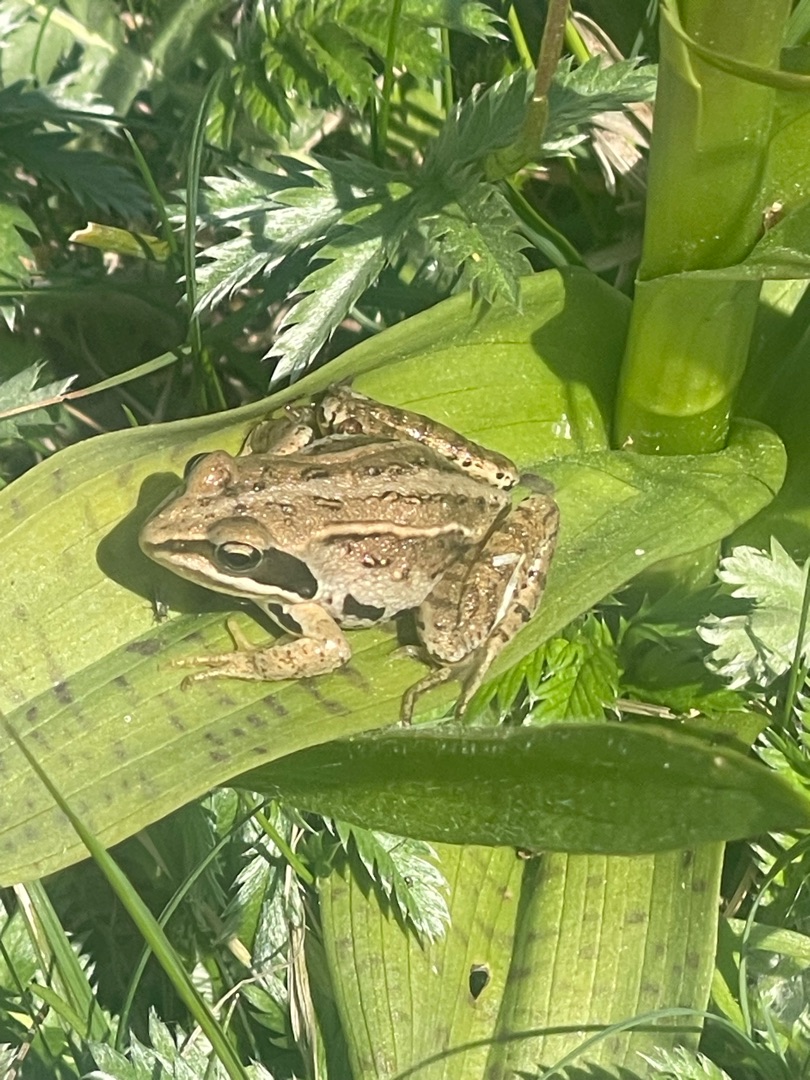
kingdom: Animalia
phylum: Chordata
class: Amphibia
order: Anura
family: Ranidae
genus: Rana
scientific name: Rana arvalis
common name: Spidssnudet frø
